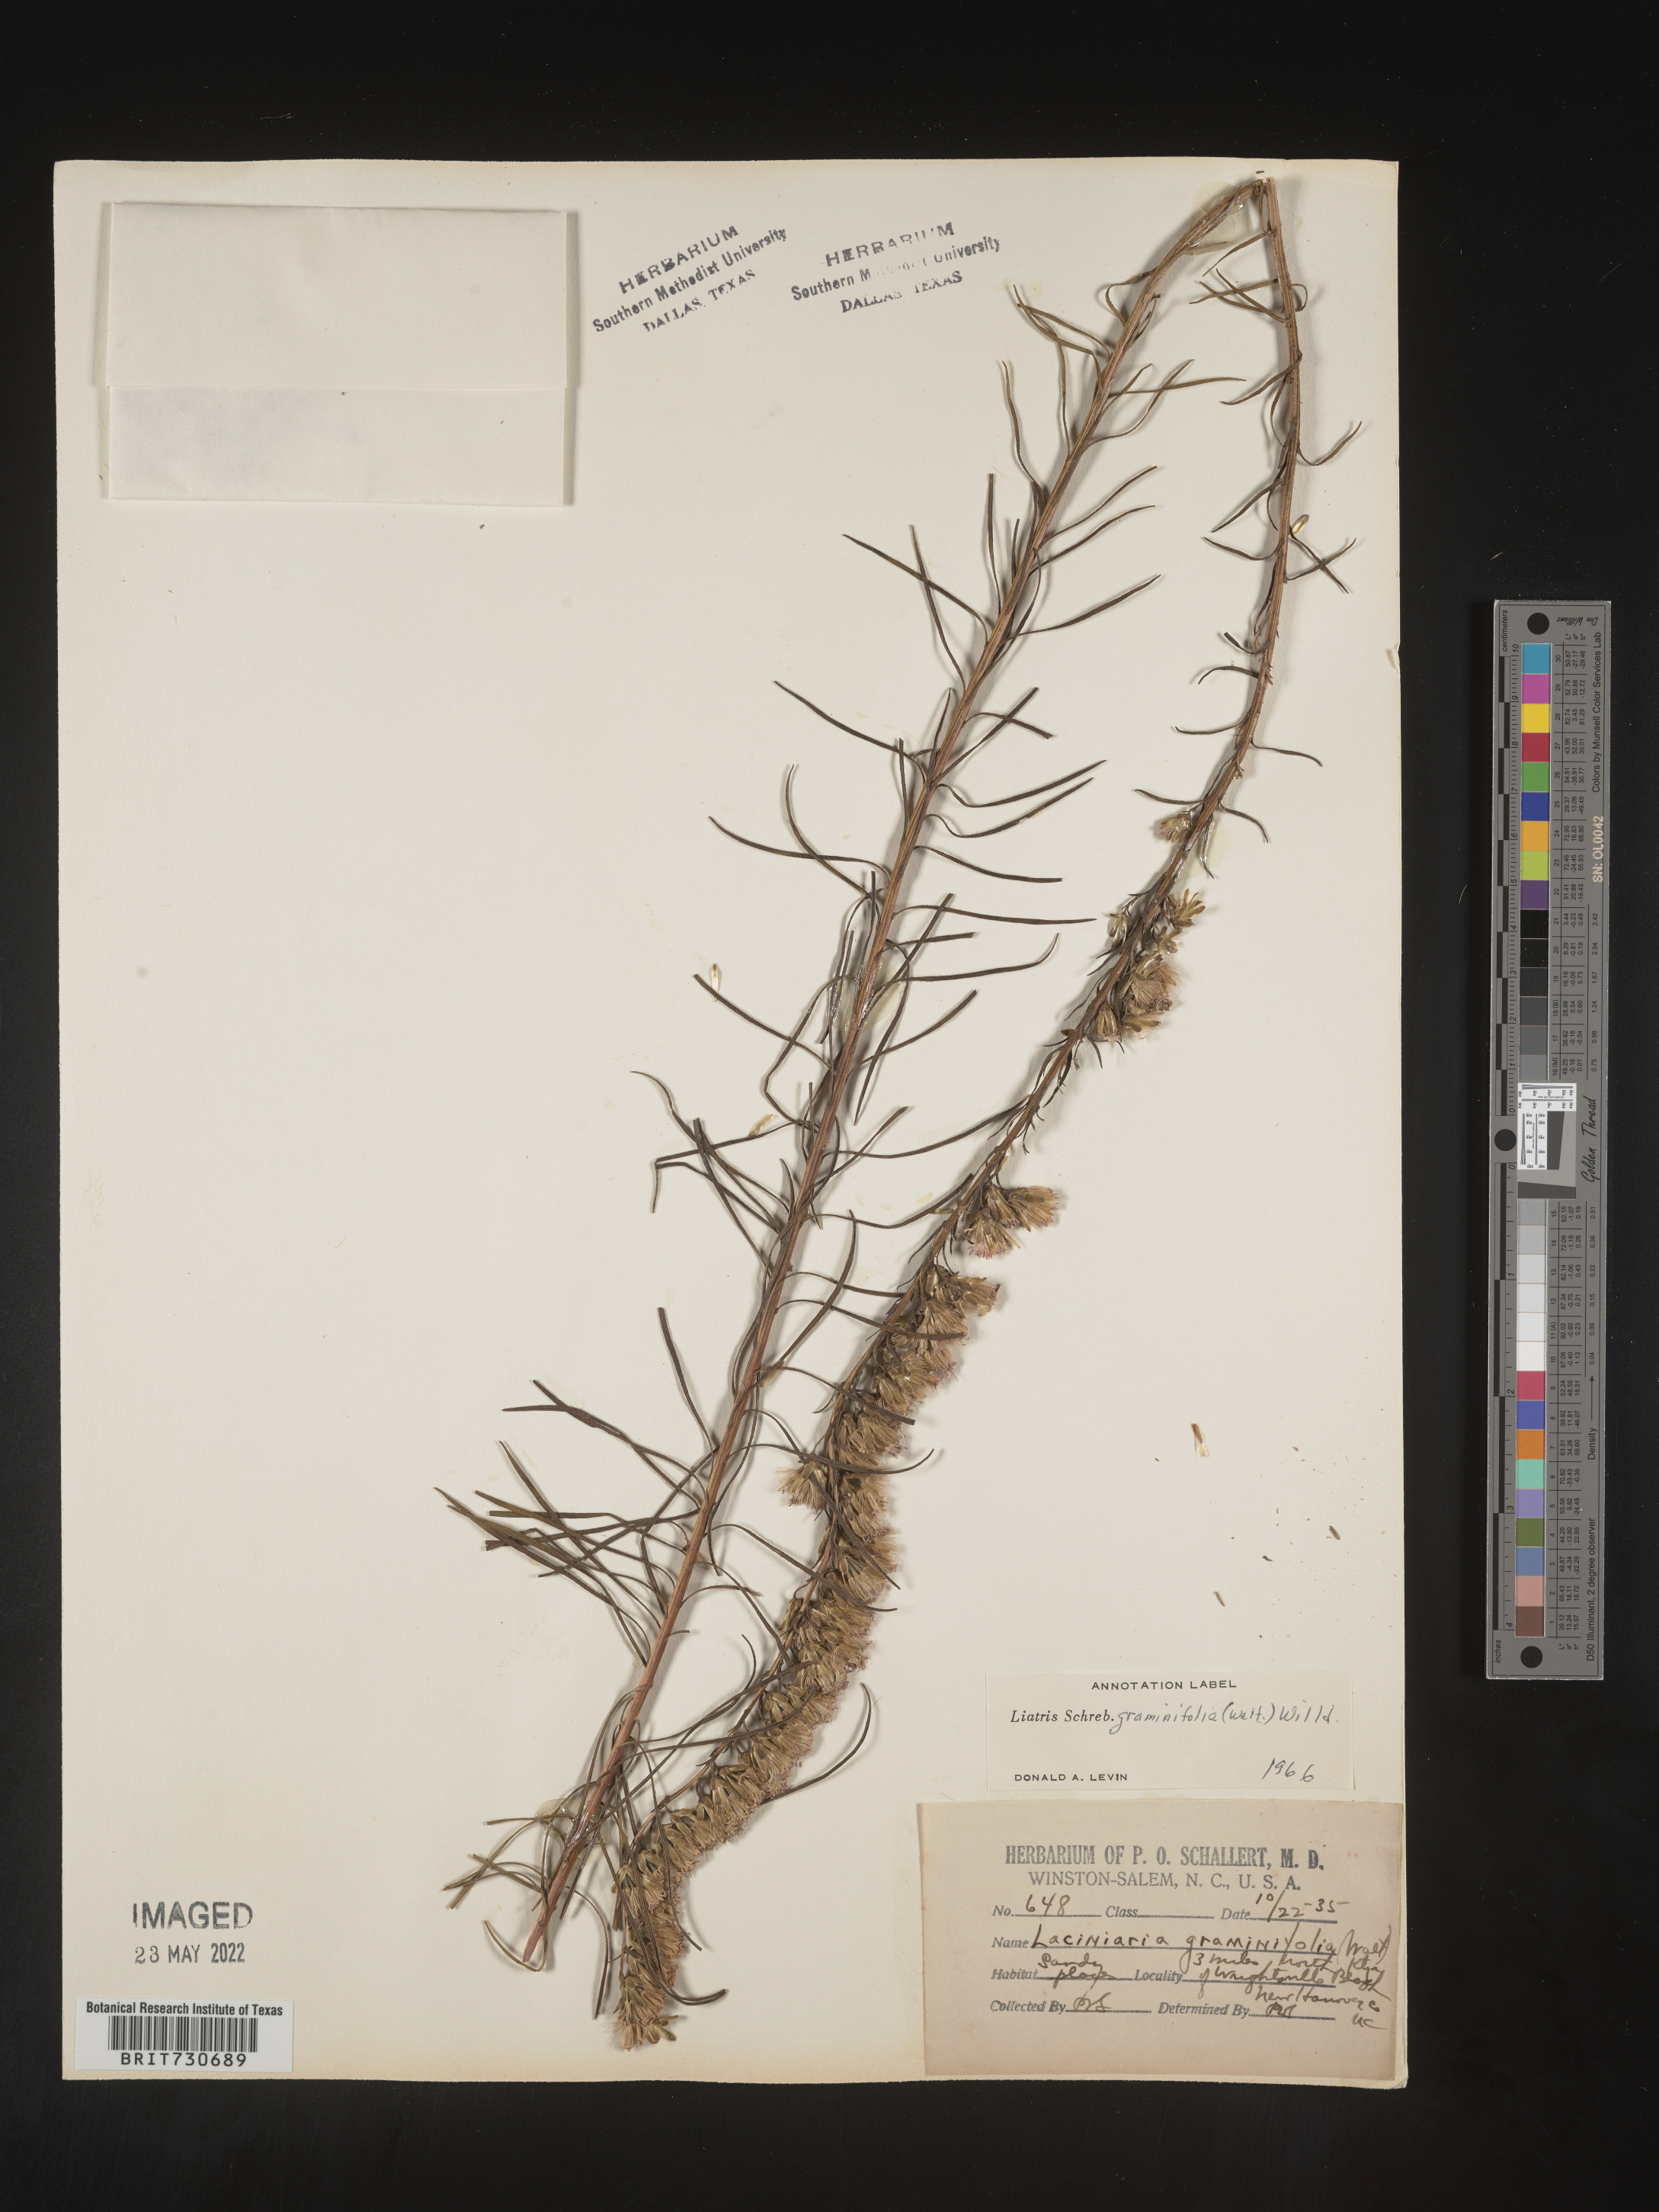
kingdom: Plantae
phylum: Tracheophyta
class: Magnoliopsida
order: Asterales
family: Asteraceae
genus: Liatris
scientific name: Liatris pilosa
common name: Grass-leaf gayfeather
